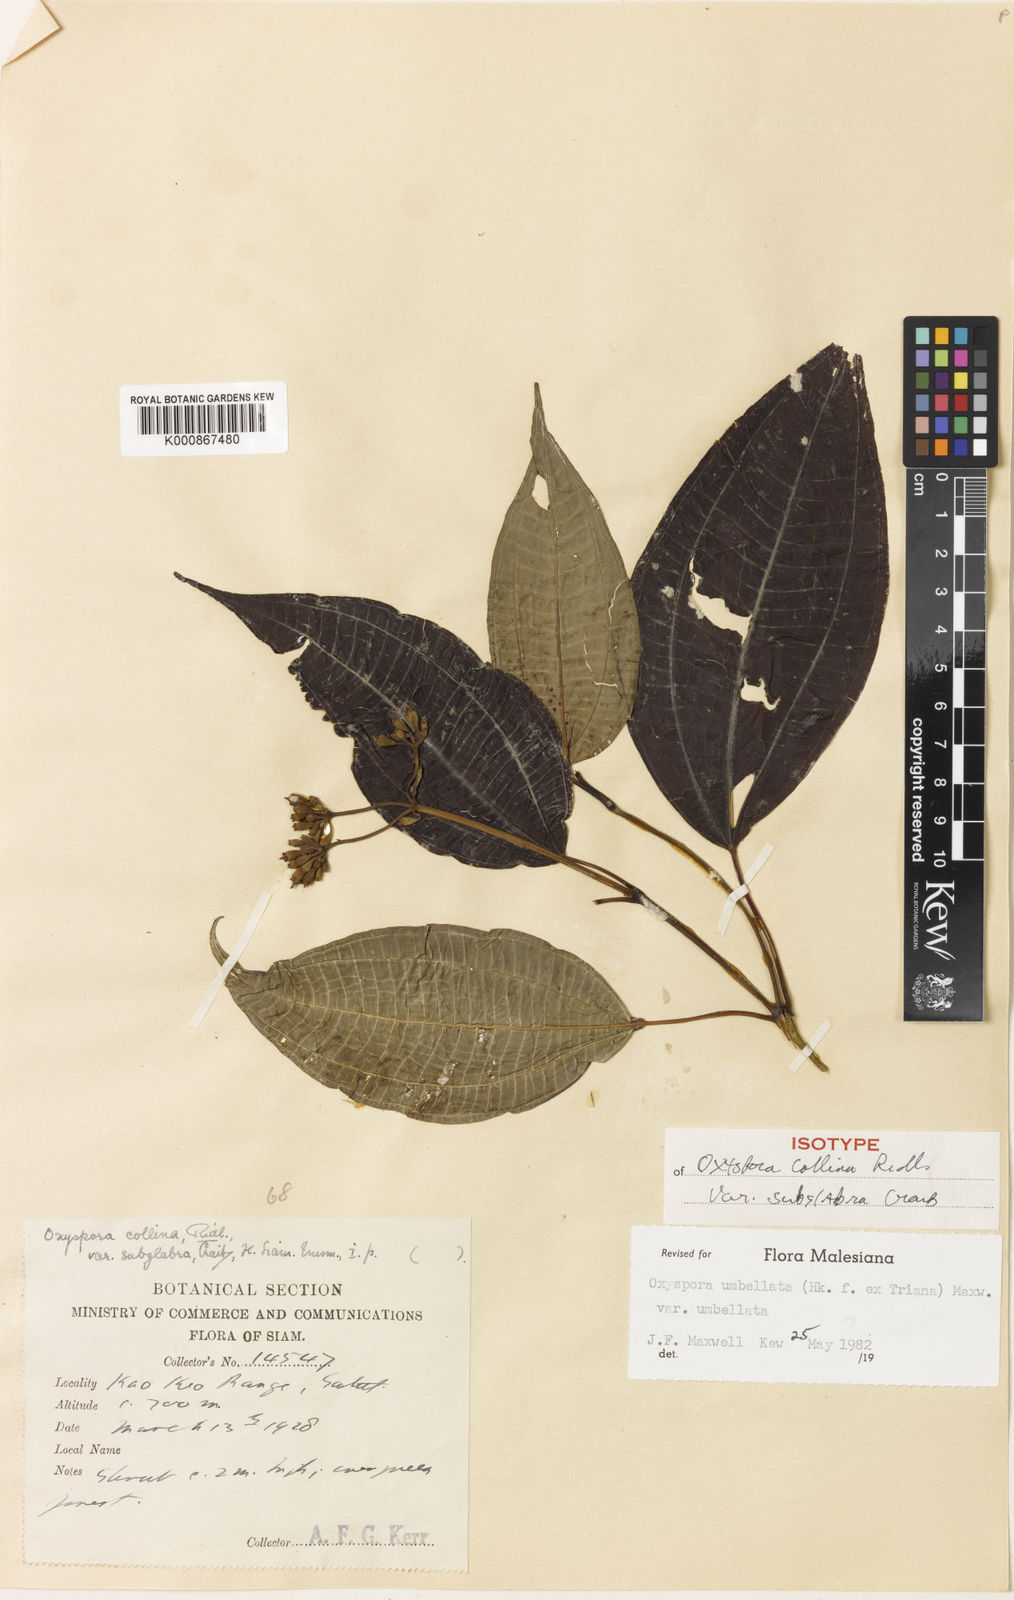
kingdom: Plantae
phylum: Tracheophyta
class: Magnoliopsida
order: Myrtales
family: Melastomataceae
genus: Allomorphia
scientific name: Allomorphia umbellulata
